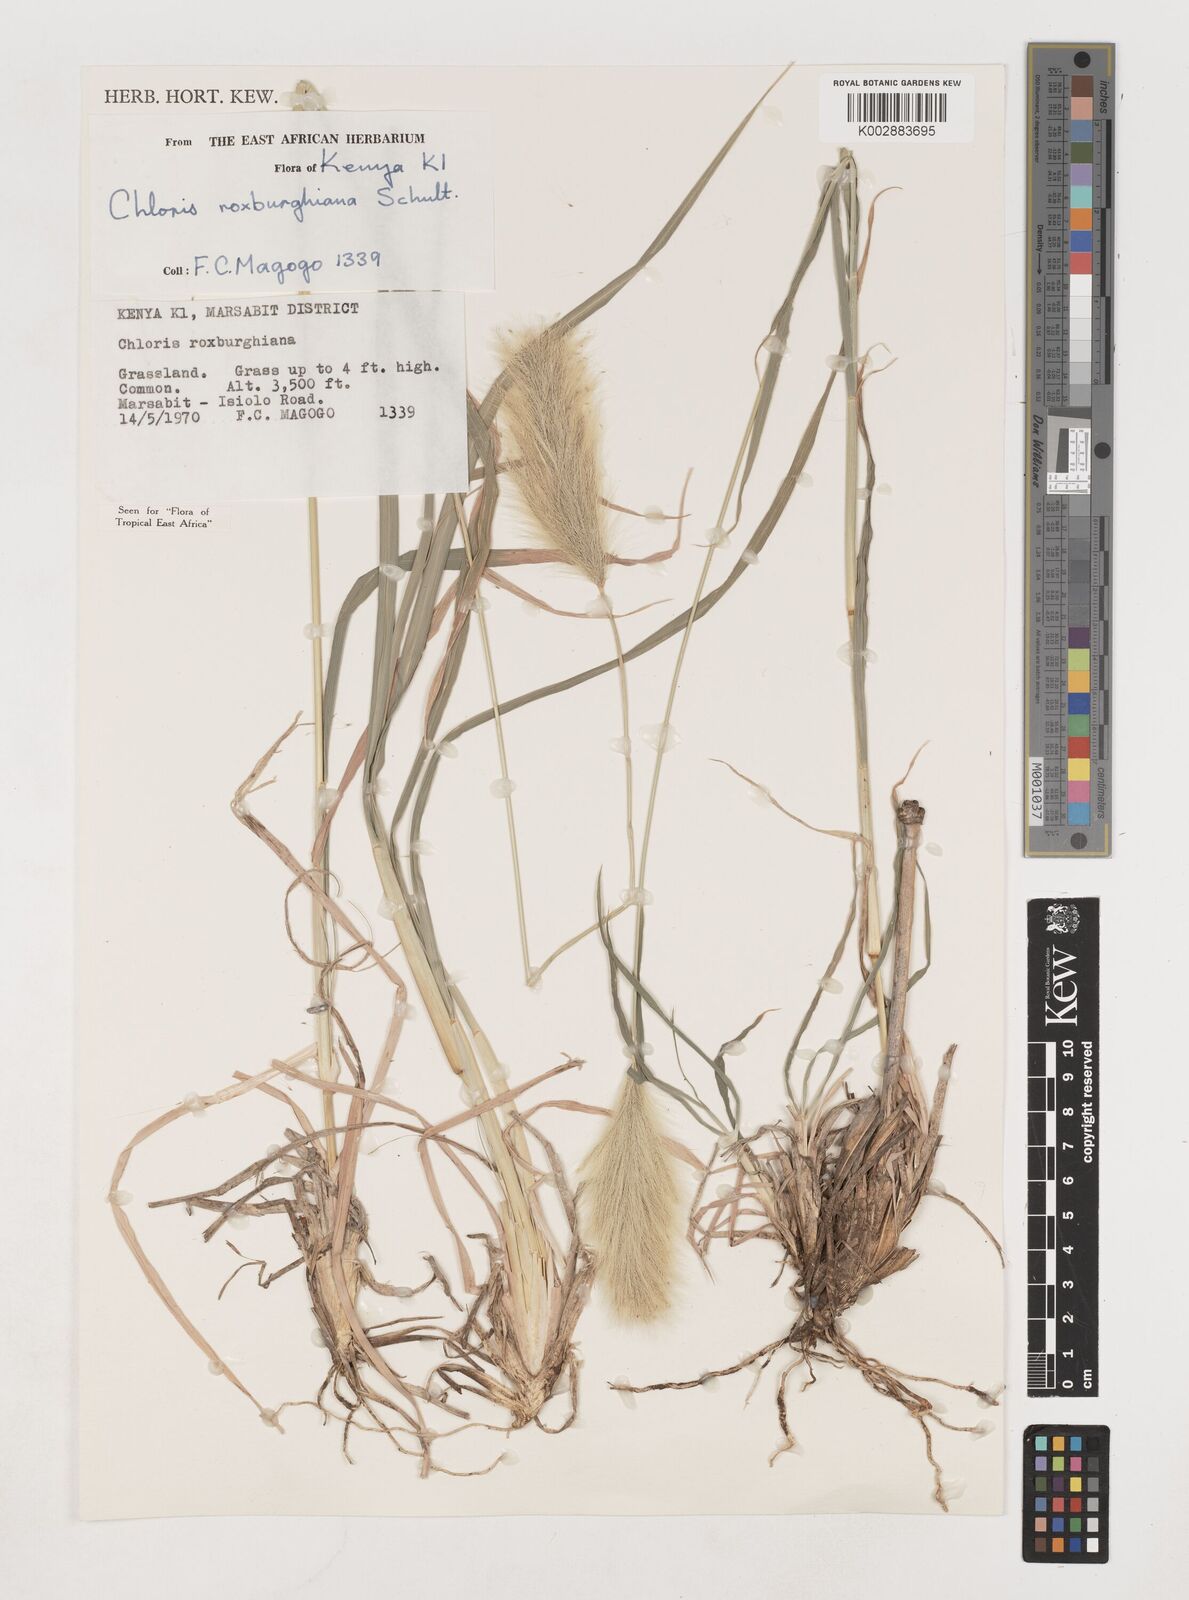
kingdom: Plantae
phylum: Tracheophyta
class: Liliopsida
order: Poales
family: Poaceae
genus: Tetrapogon
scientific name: Tetrapogon roxburghiana
